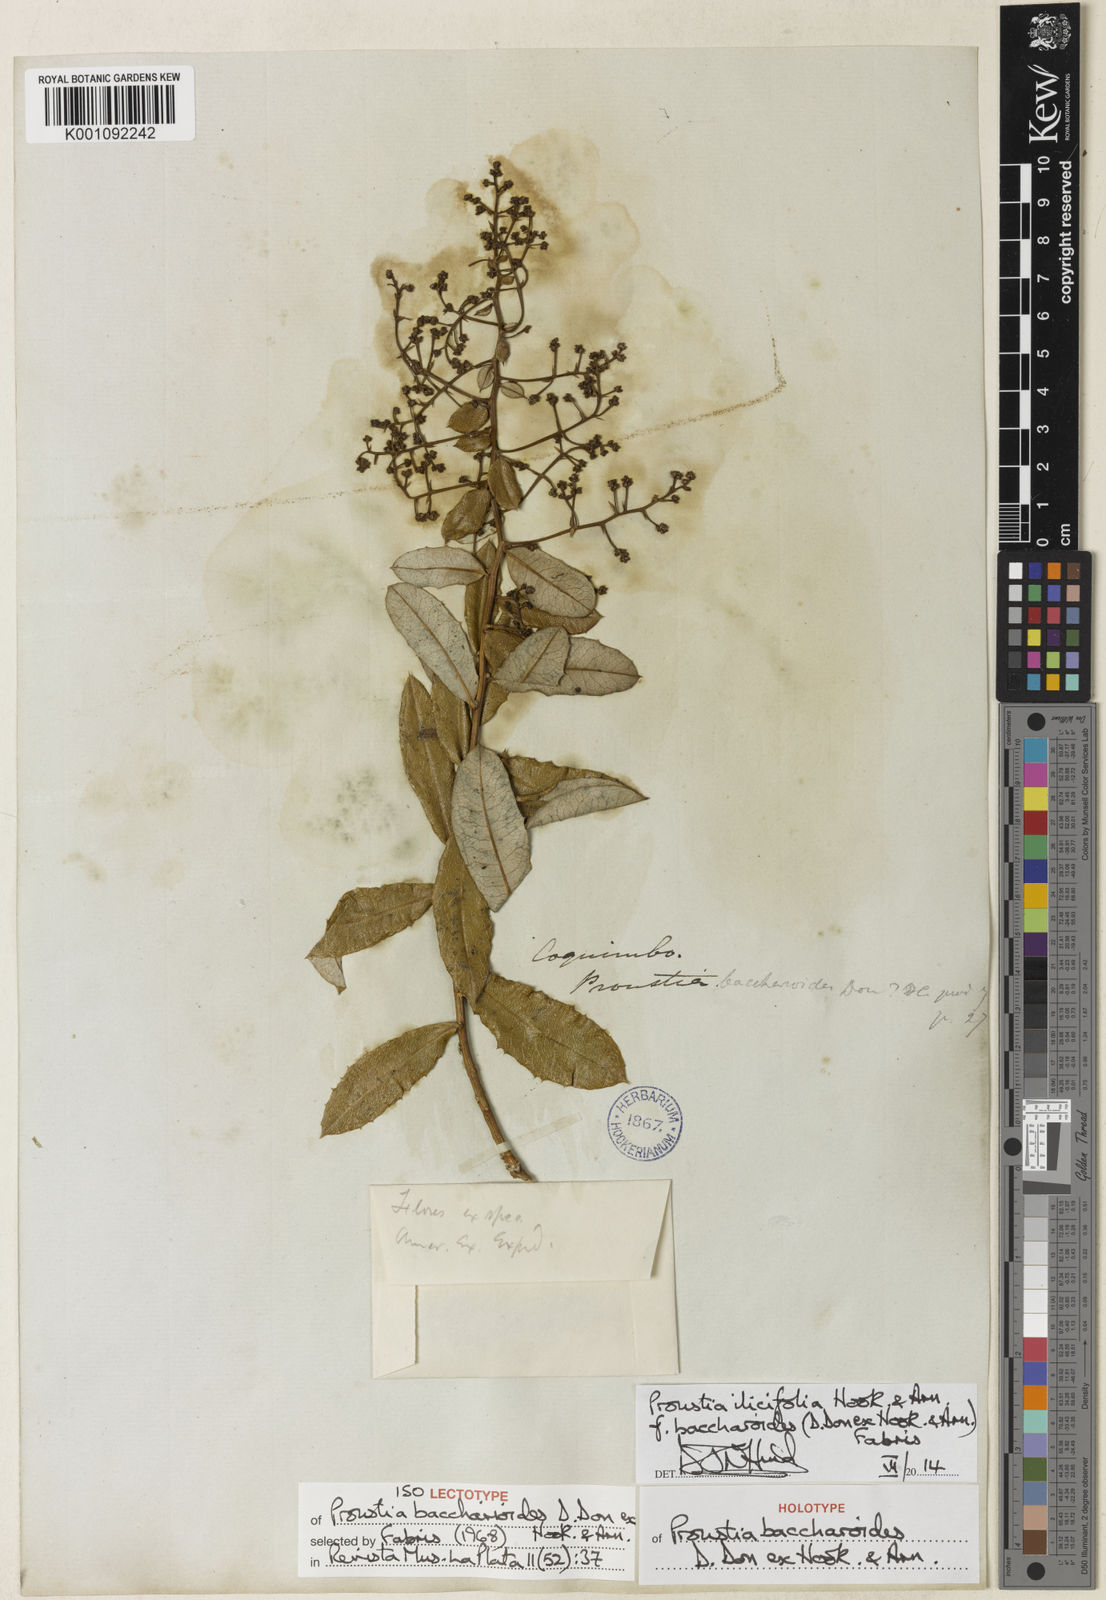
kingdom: Plantae
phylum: Tracheophyta
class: Magnoliopsida
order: Asterales
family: Asteraceae
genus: Spinoliva
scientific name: Spinoliva ilicifolia
